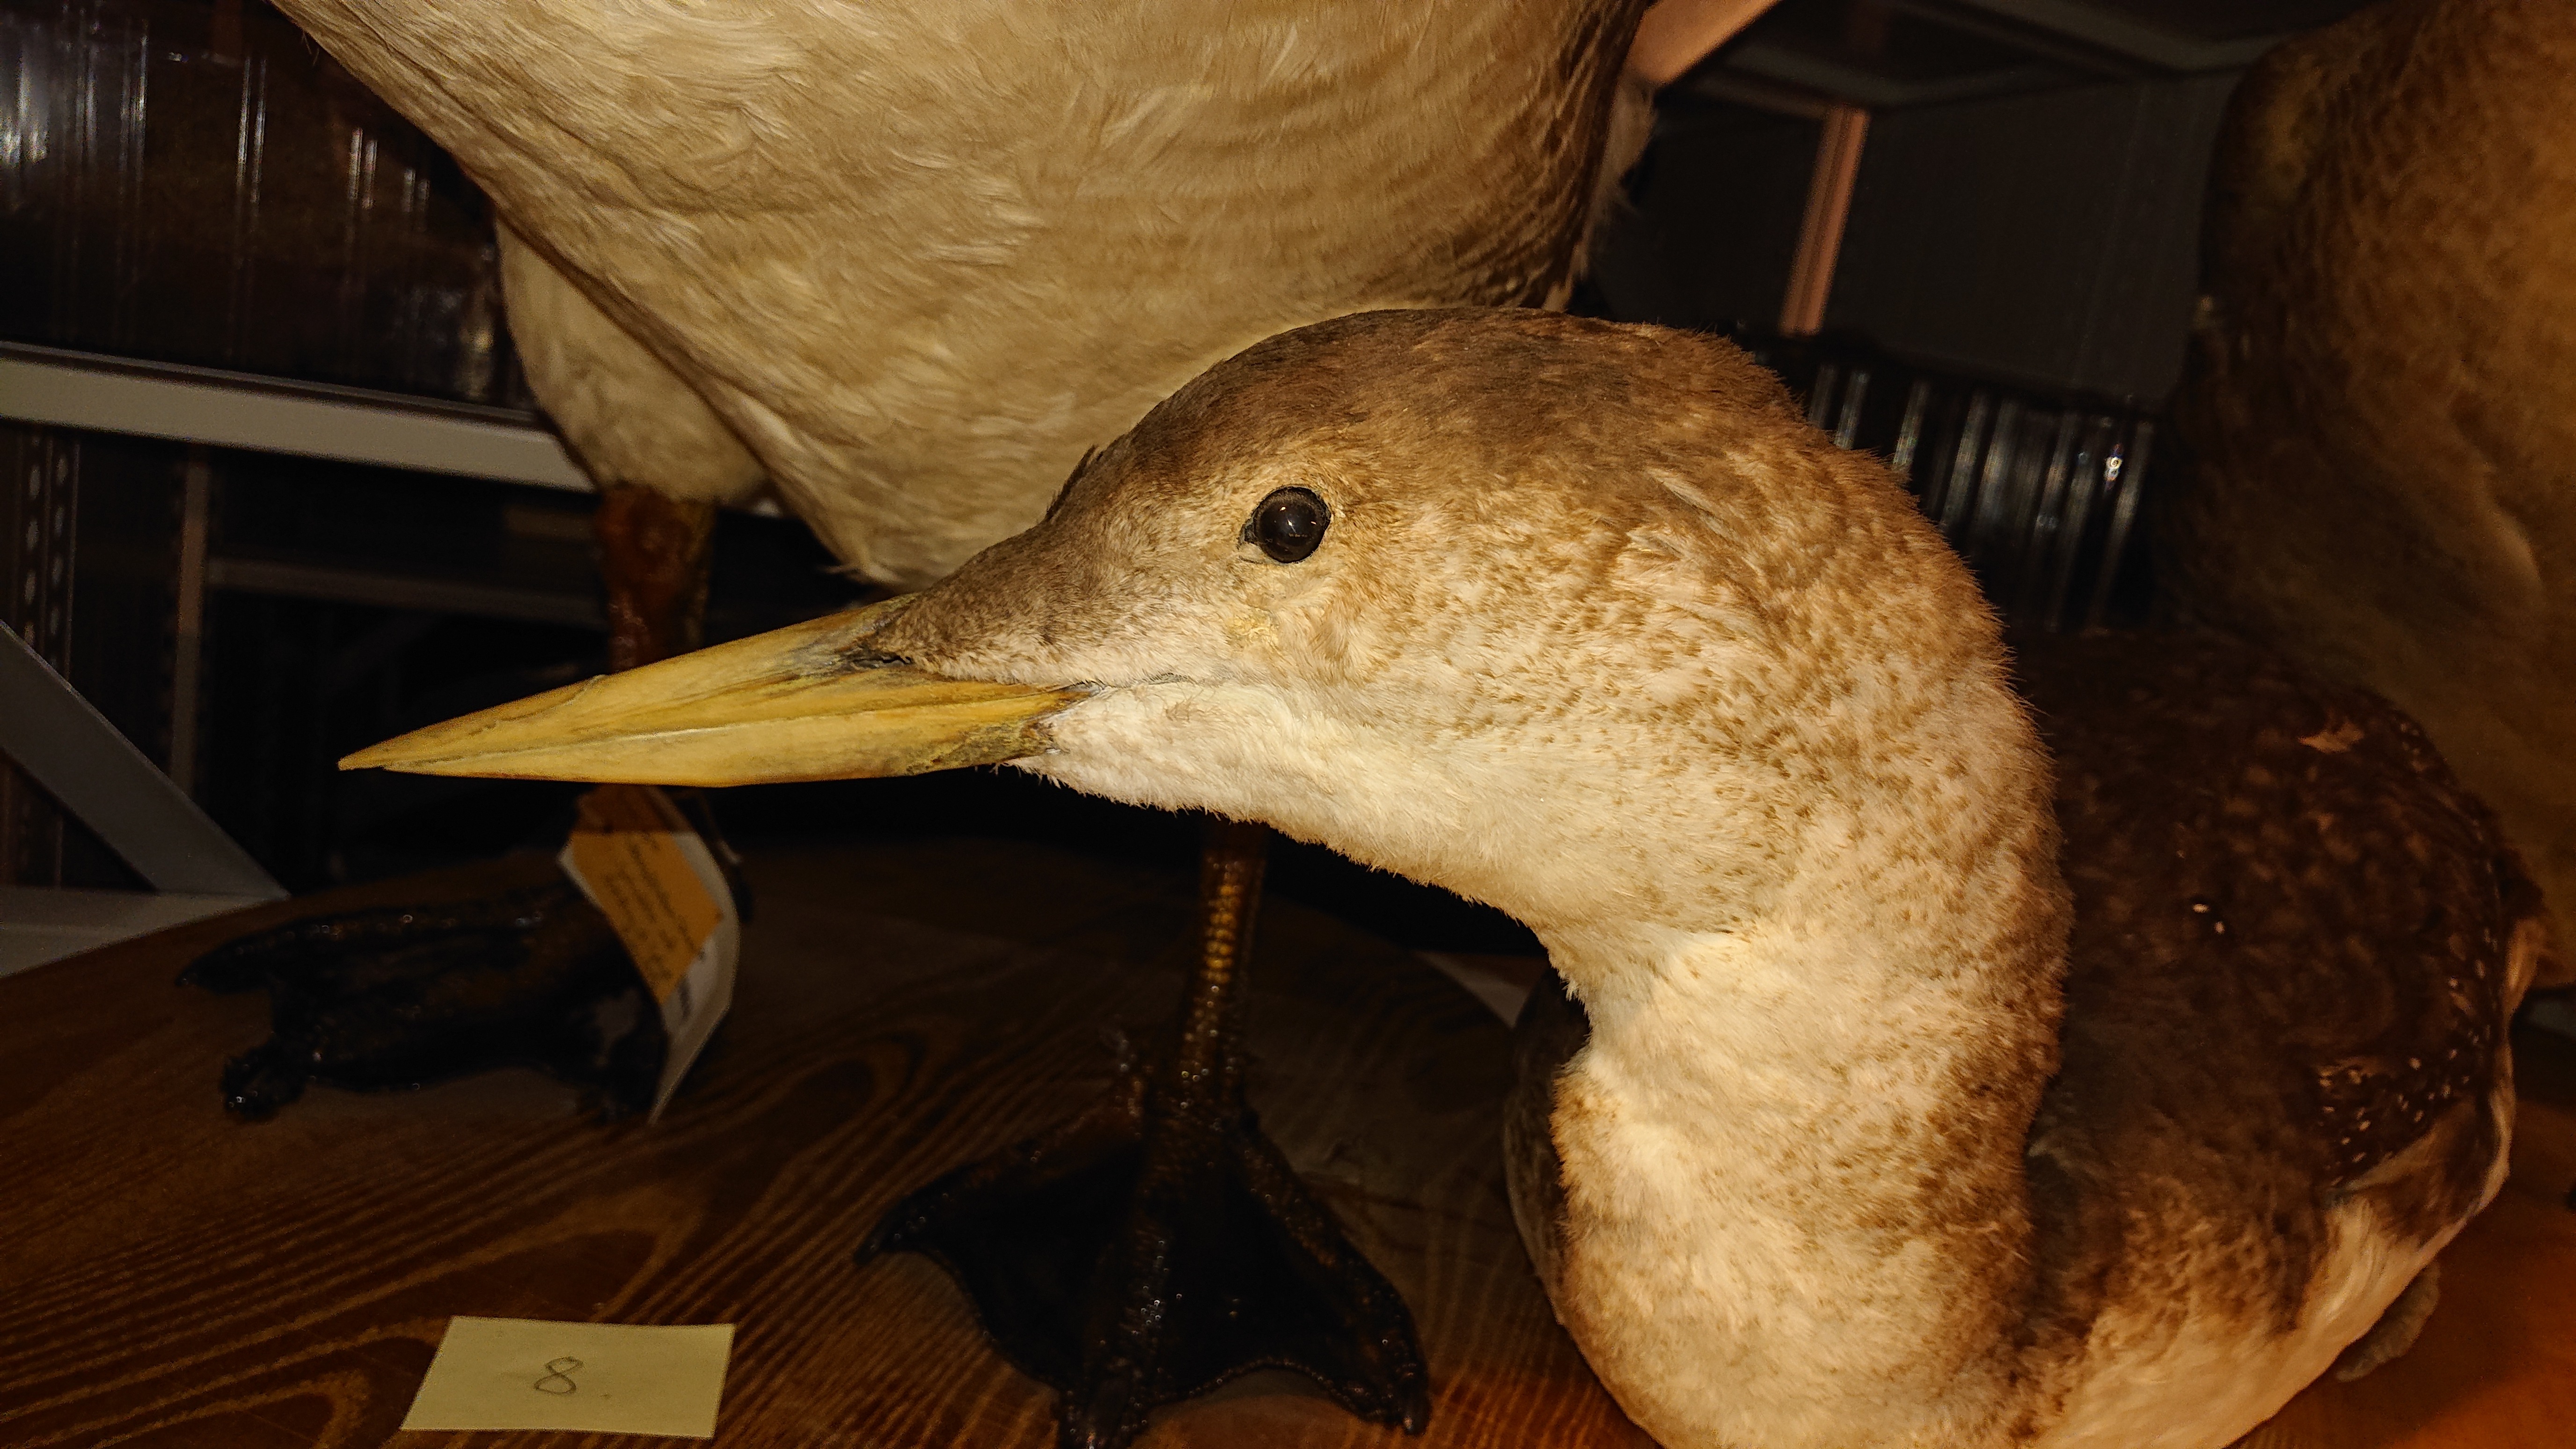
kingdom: Animalia
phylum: Chordata
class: Aves
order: Gaviiformes
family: Gaviidae
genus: Gavia
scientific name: Gavia adamsii
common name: Yellow-billed loon
